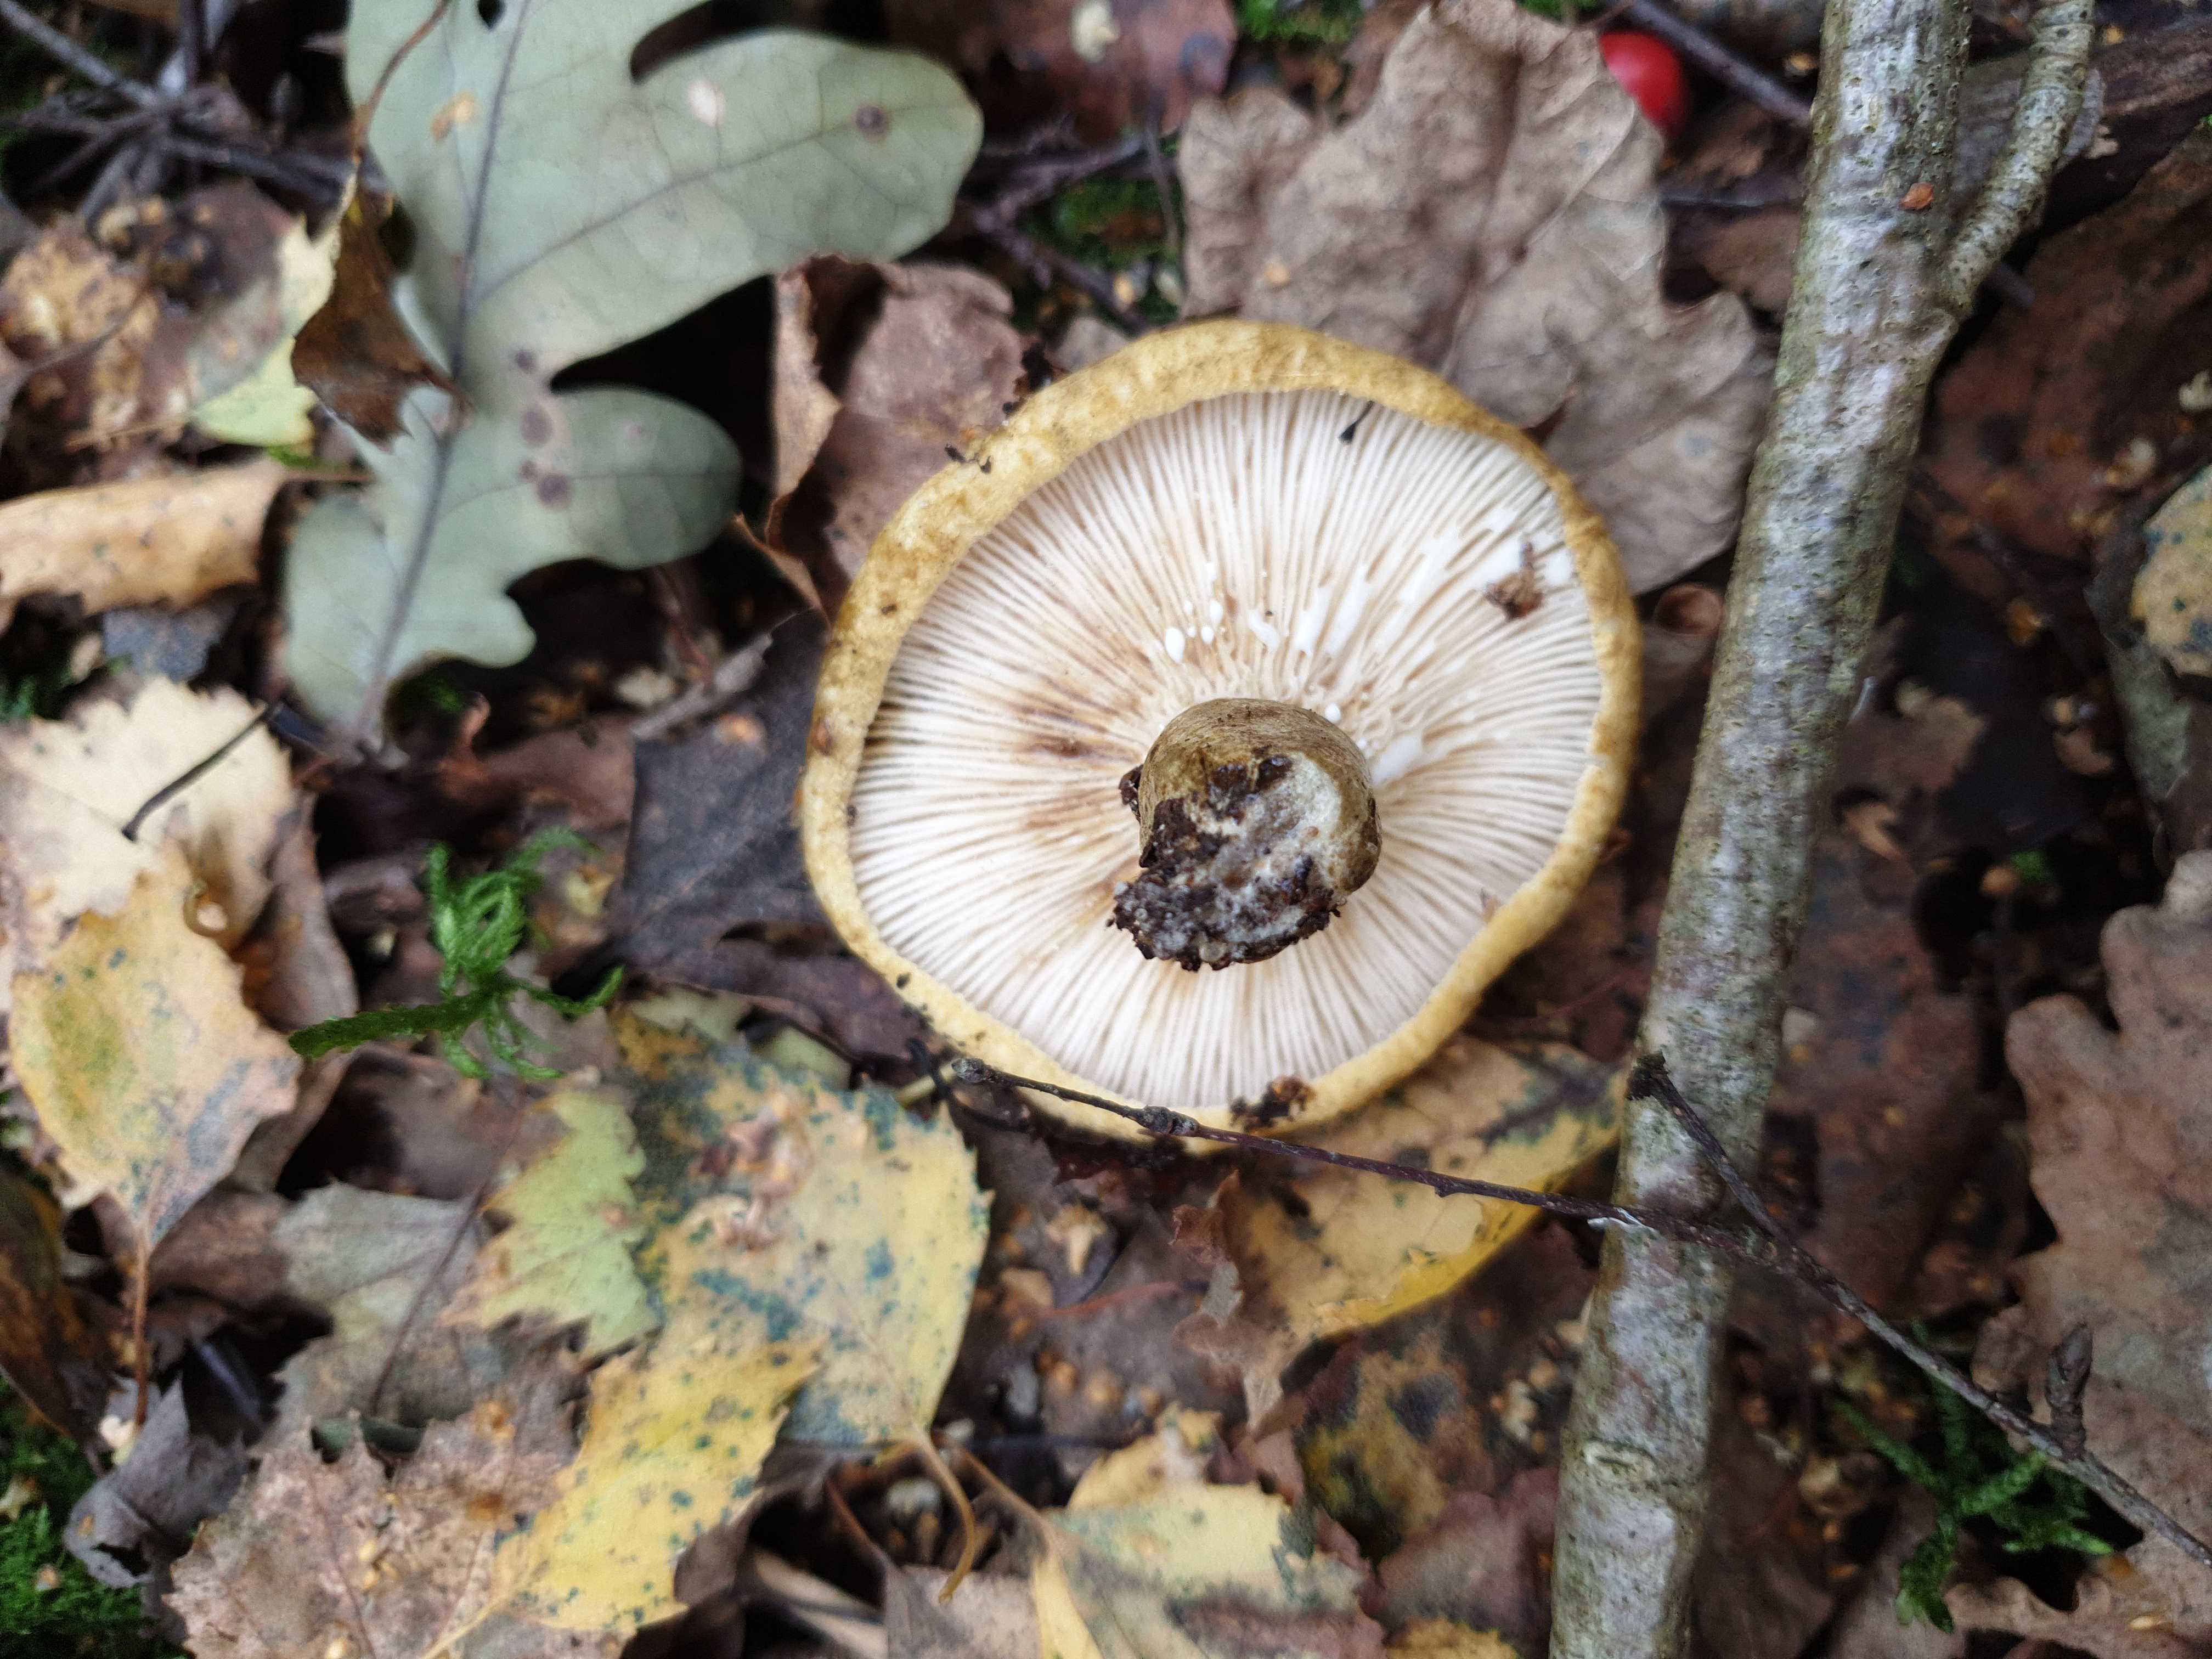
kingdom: Fungi
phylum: Basidiomycota
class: Agaricomycetes
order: Russulales
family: Russulaceae
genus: Lactarius
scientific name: Lactarius necator
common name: manddraber-mælkehat
